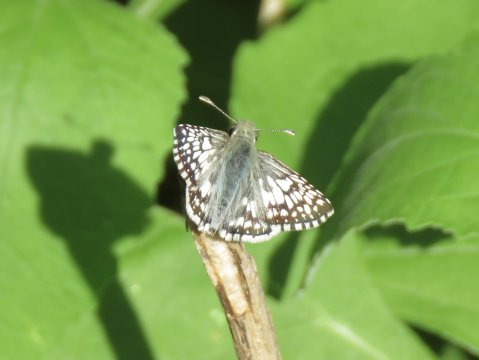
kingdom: Animalia
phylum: Arthropoda
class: Insecta
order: Lepidoptera
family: Hesperiidae
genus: Pyrgus
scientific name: Pyrgus communis
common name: White Checkered-Skipper
